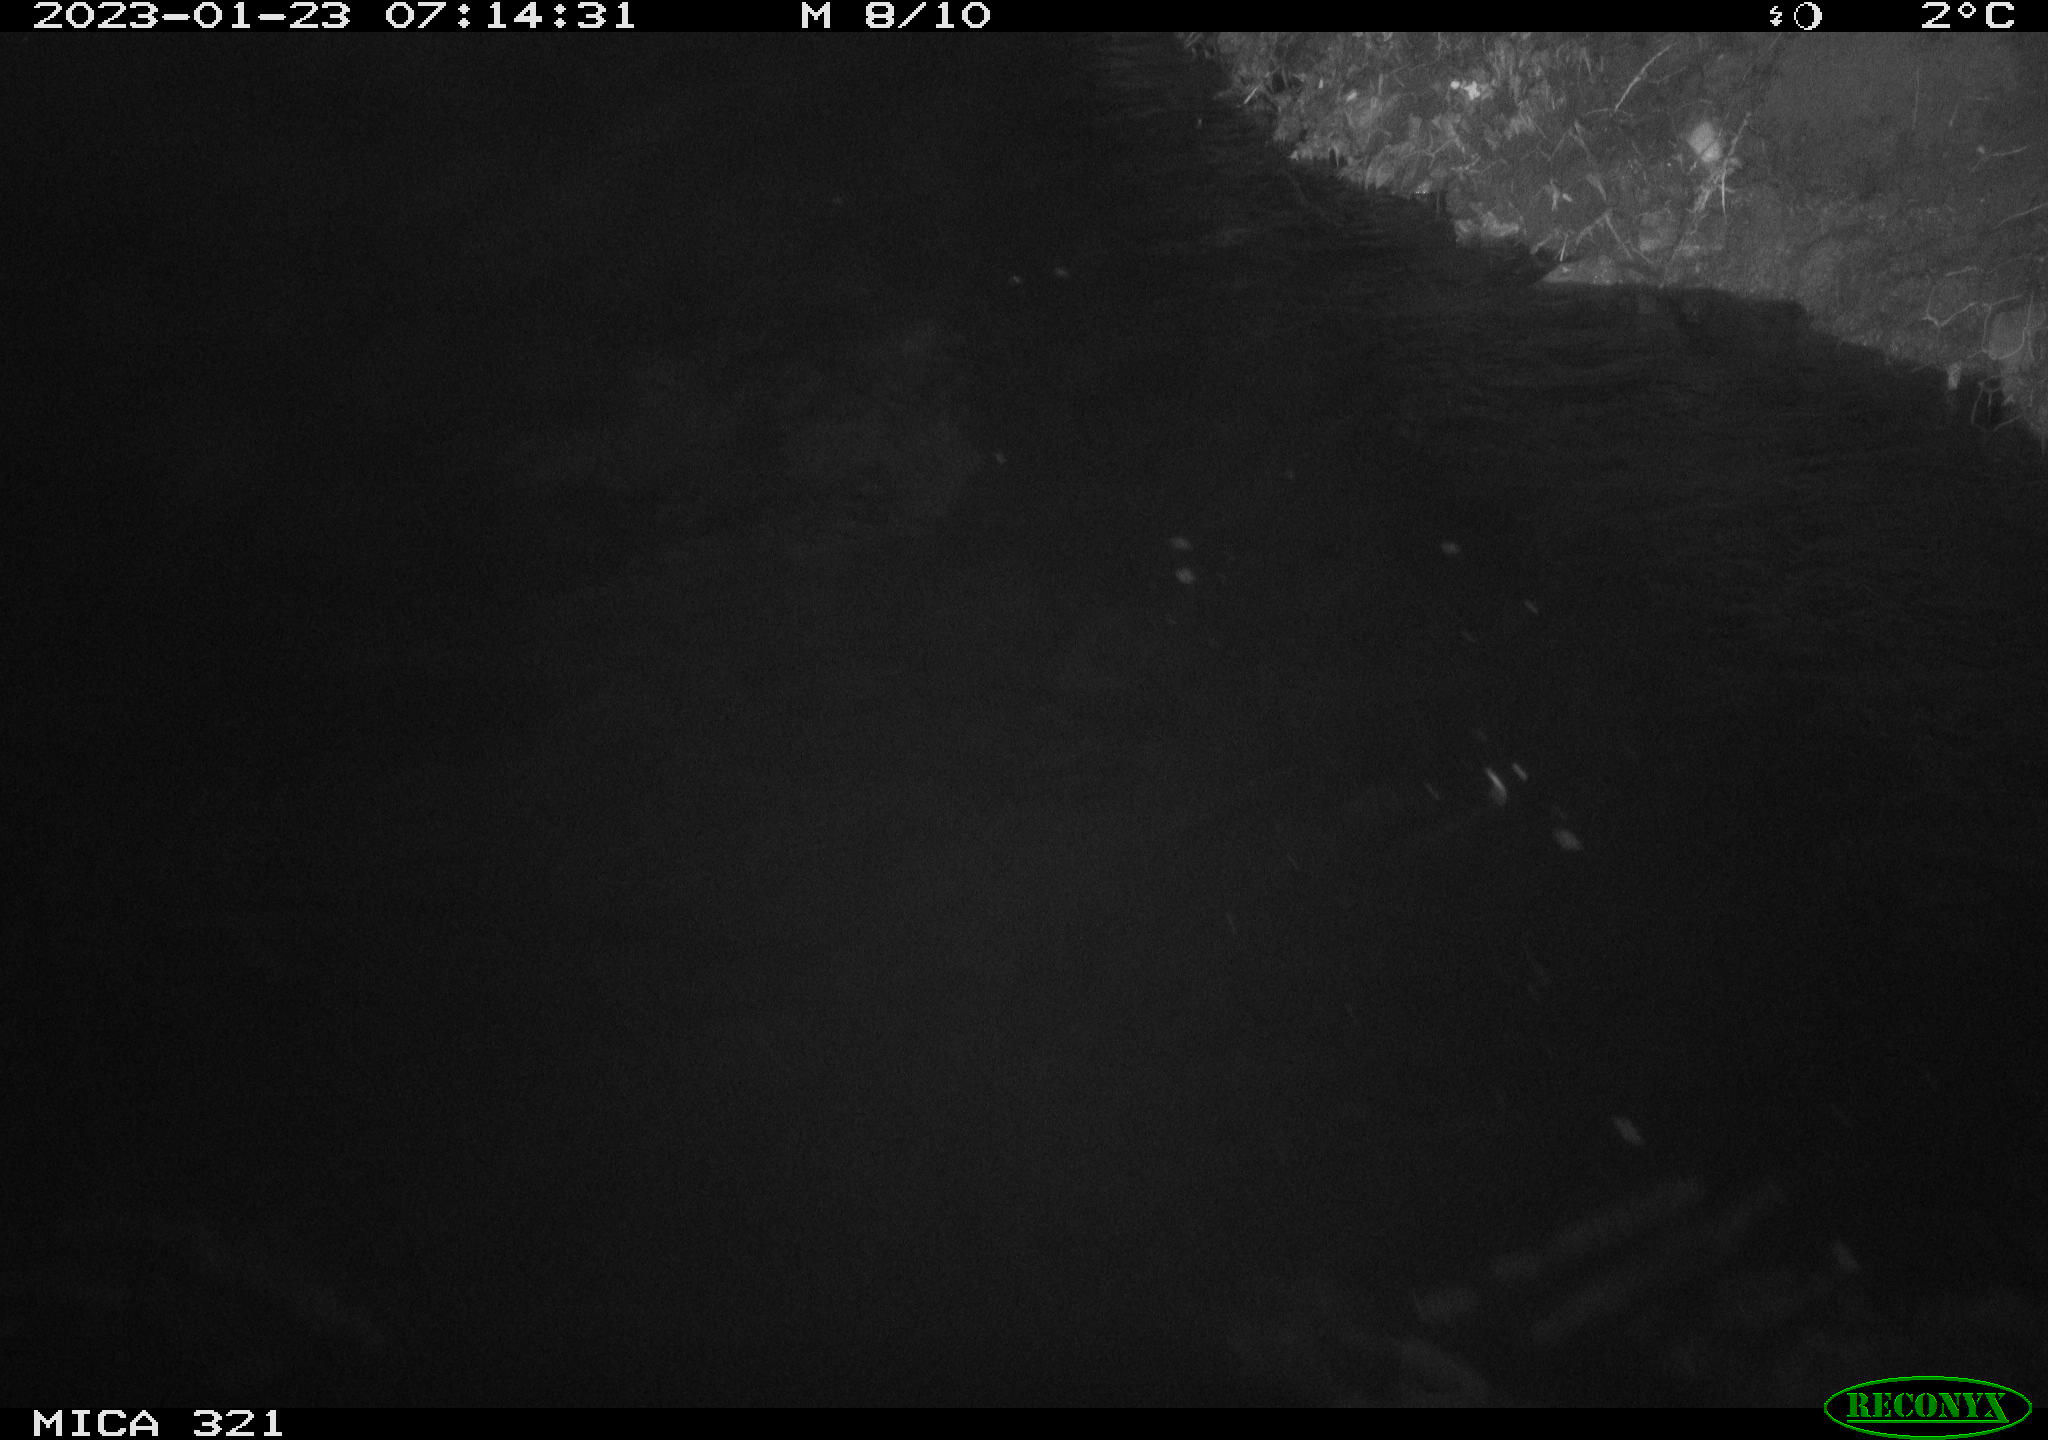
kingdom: Animalia
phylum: Chordata
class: Aves
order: Anseriformes
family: Anatidae
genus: Anas
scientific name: Anas
